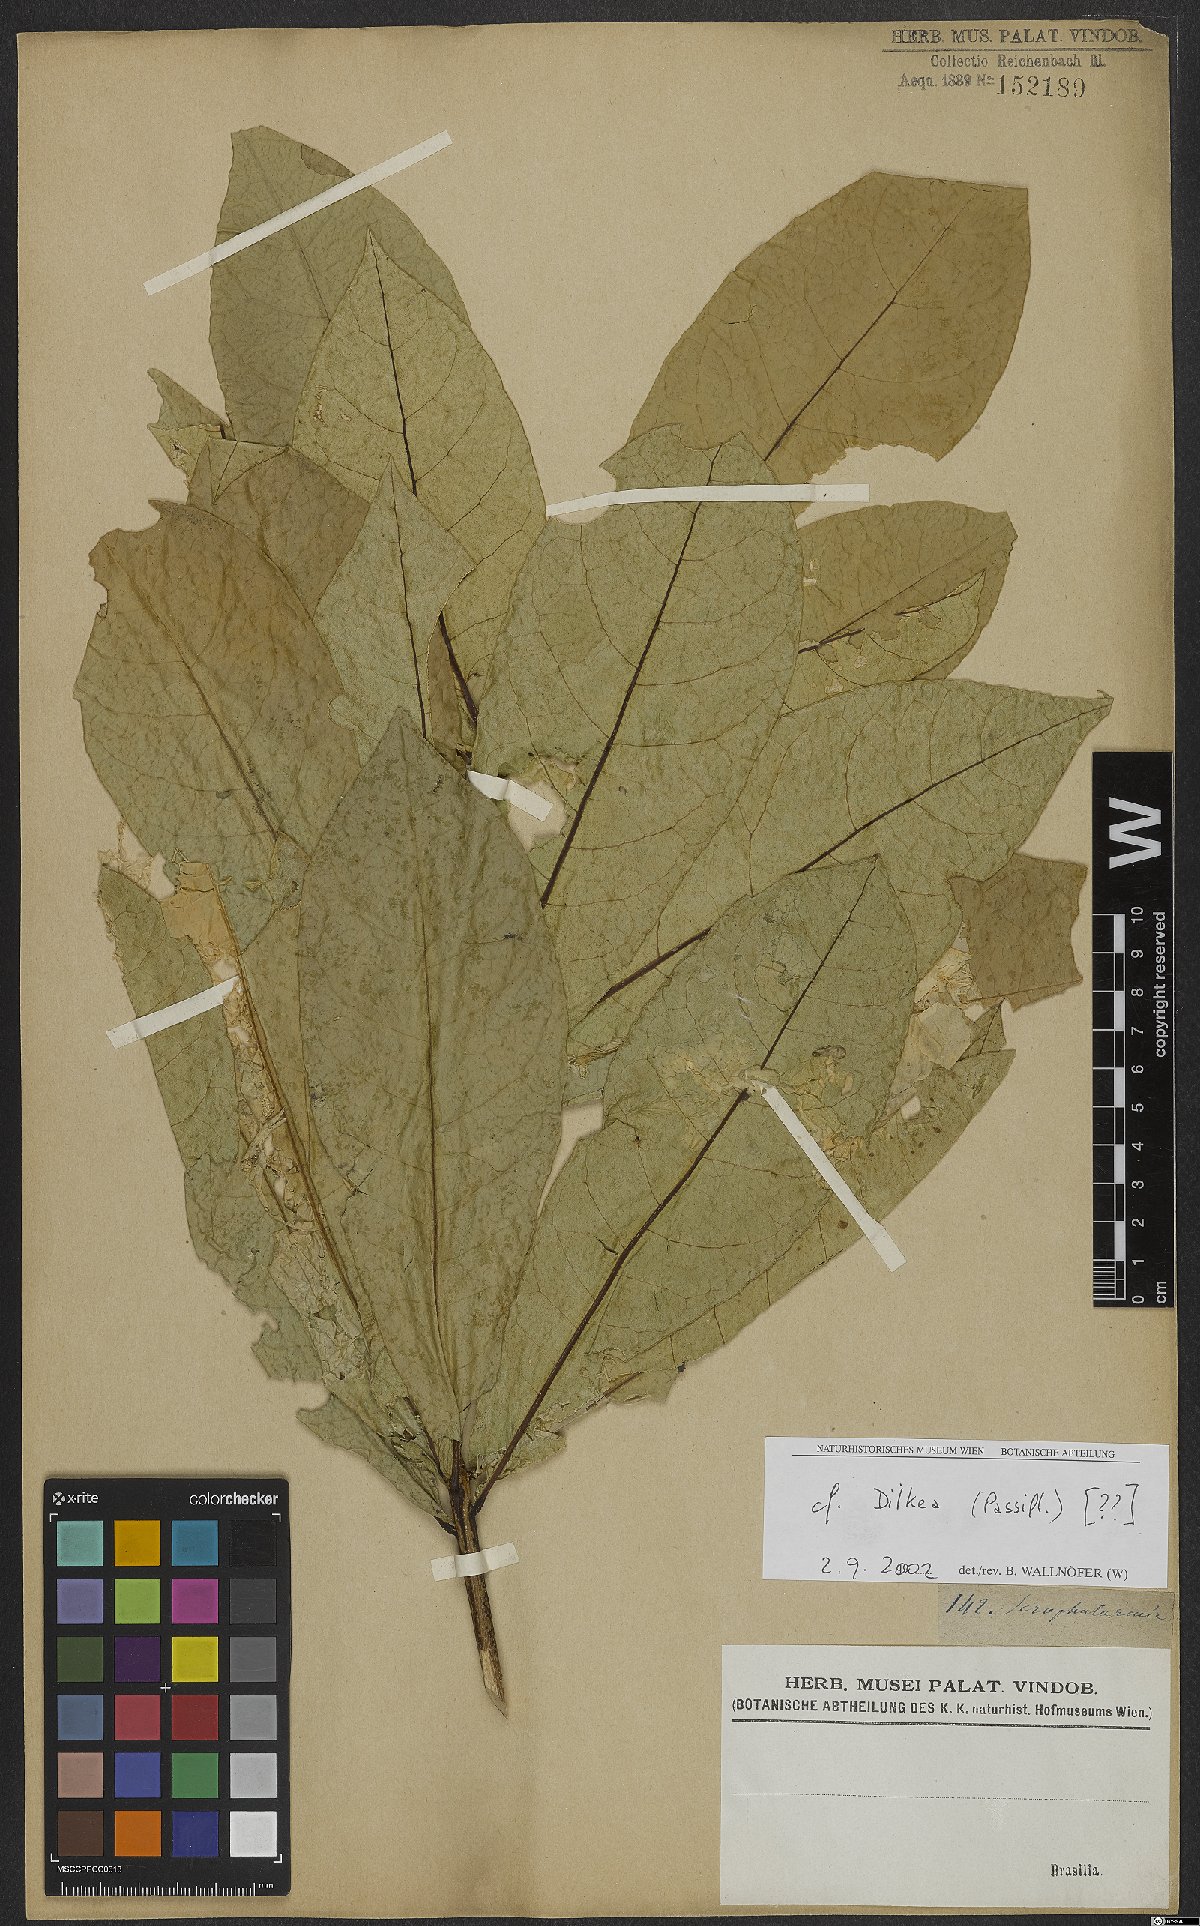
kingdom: Plantae
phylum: Tracheophyta
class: Magnoliopsida
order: Malpighiales
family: Passifloraceae
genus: Dilkea
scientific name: Dilkea
